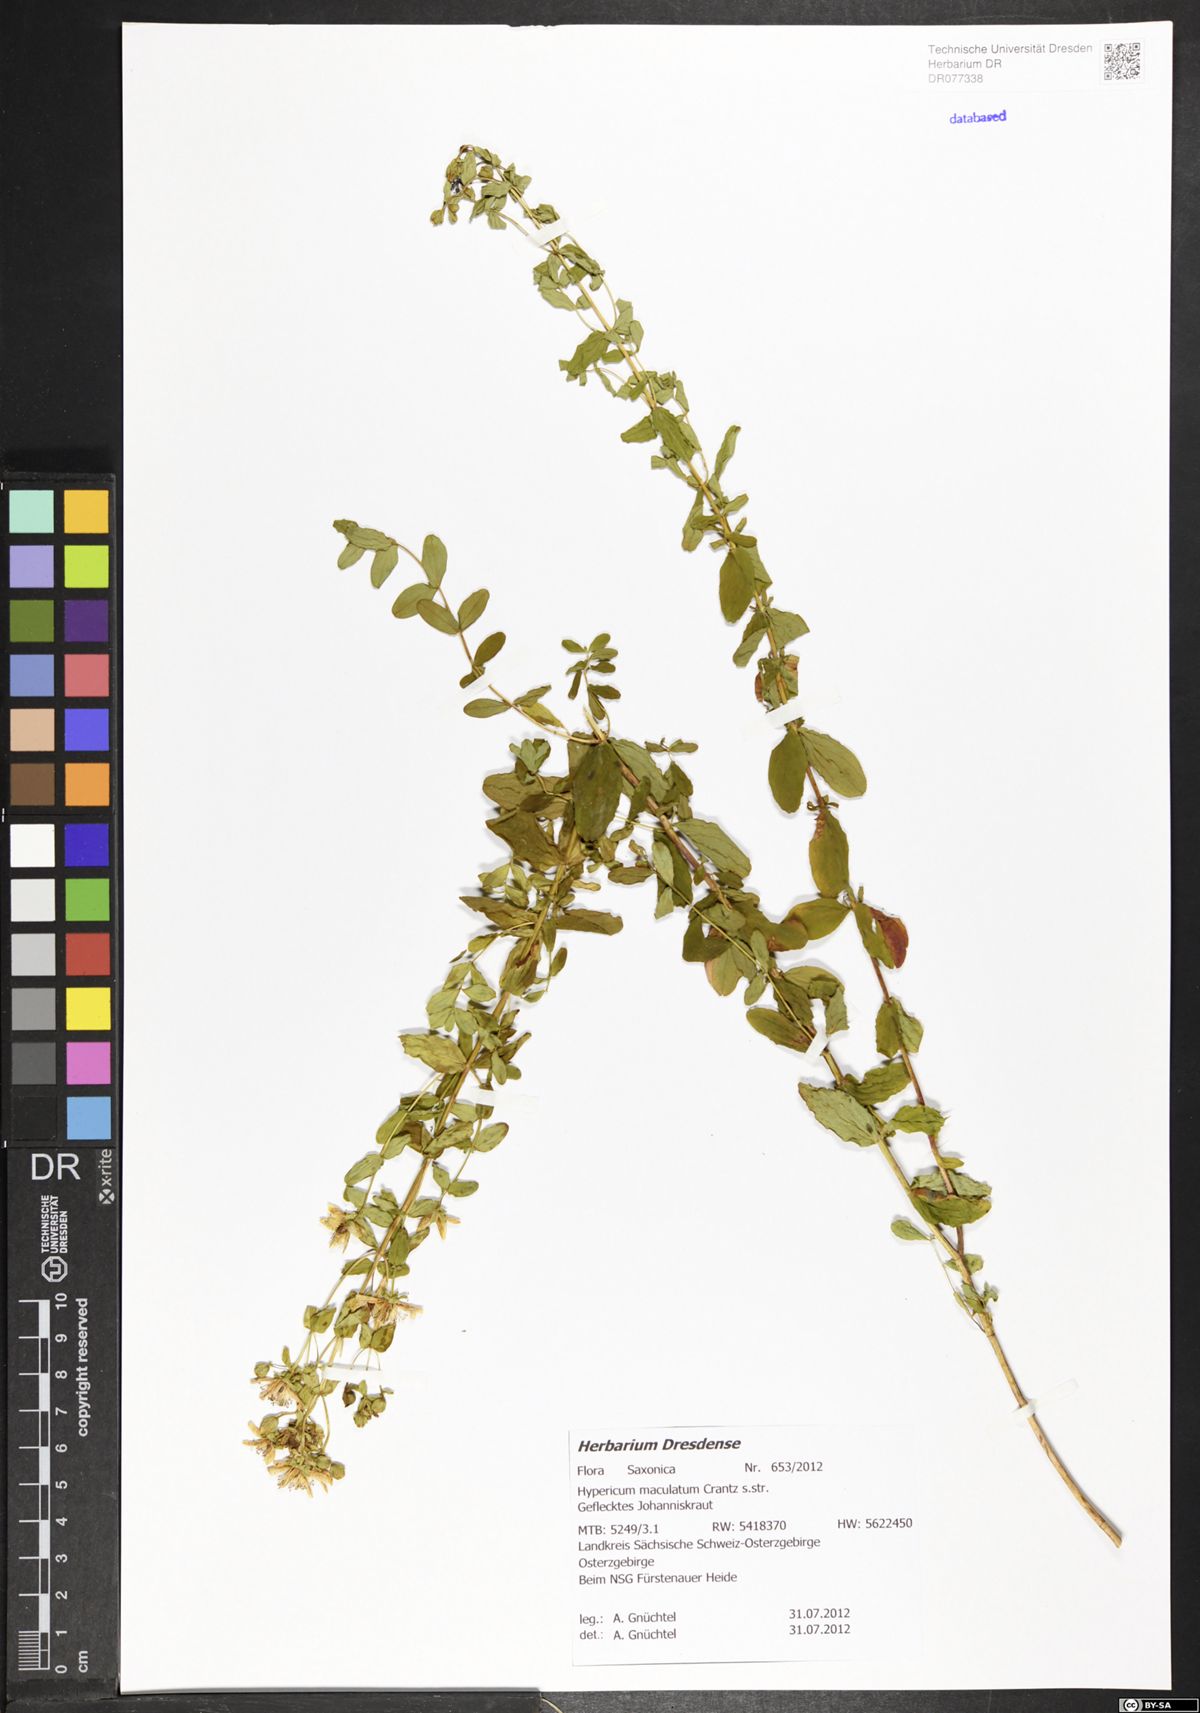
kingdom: Plantae
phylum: Tracheophyta
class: Magnoliopsida
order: Malpighiales
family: Hypericaceae
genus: Hypericum
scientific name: Hypericum maculatum
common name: Imperforate st. john's-wort
